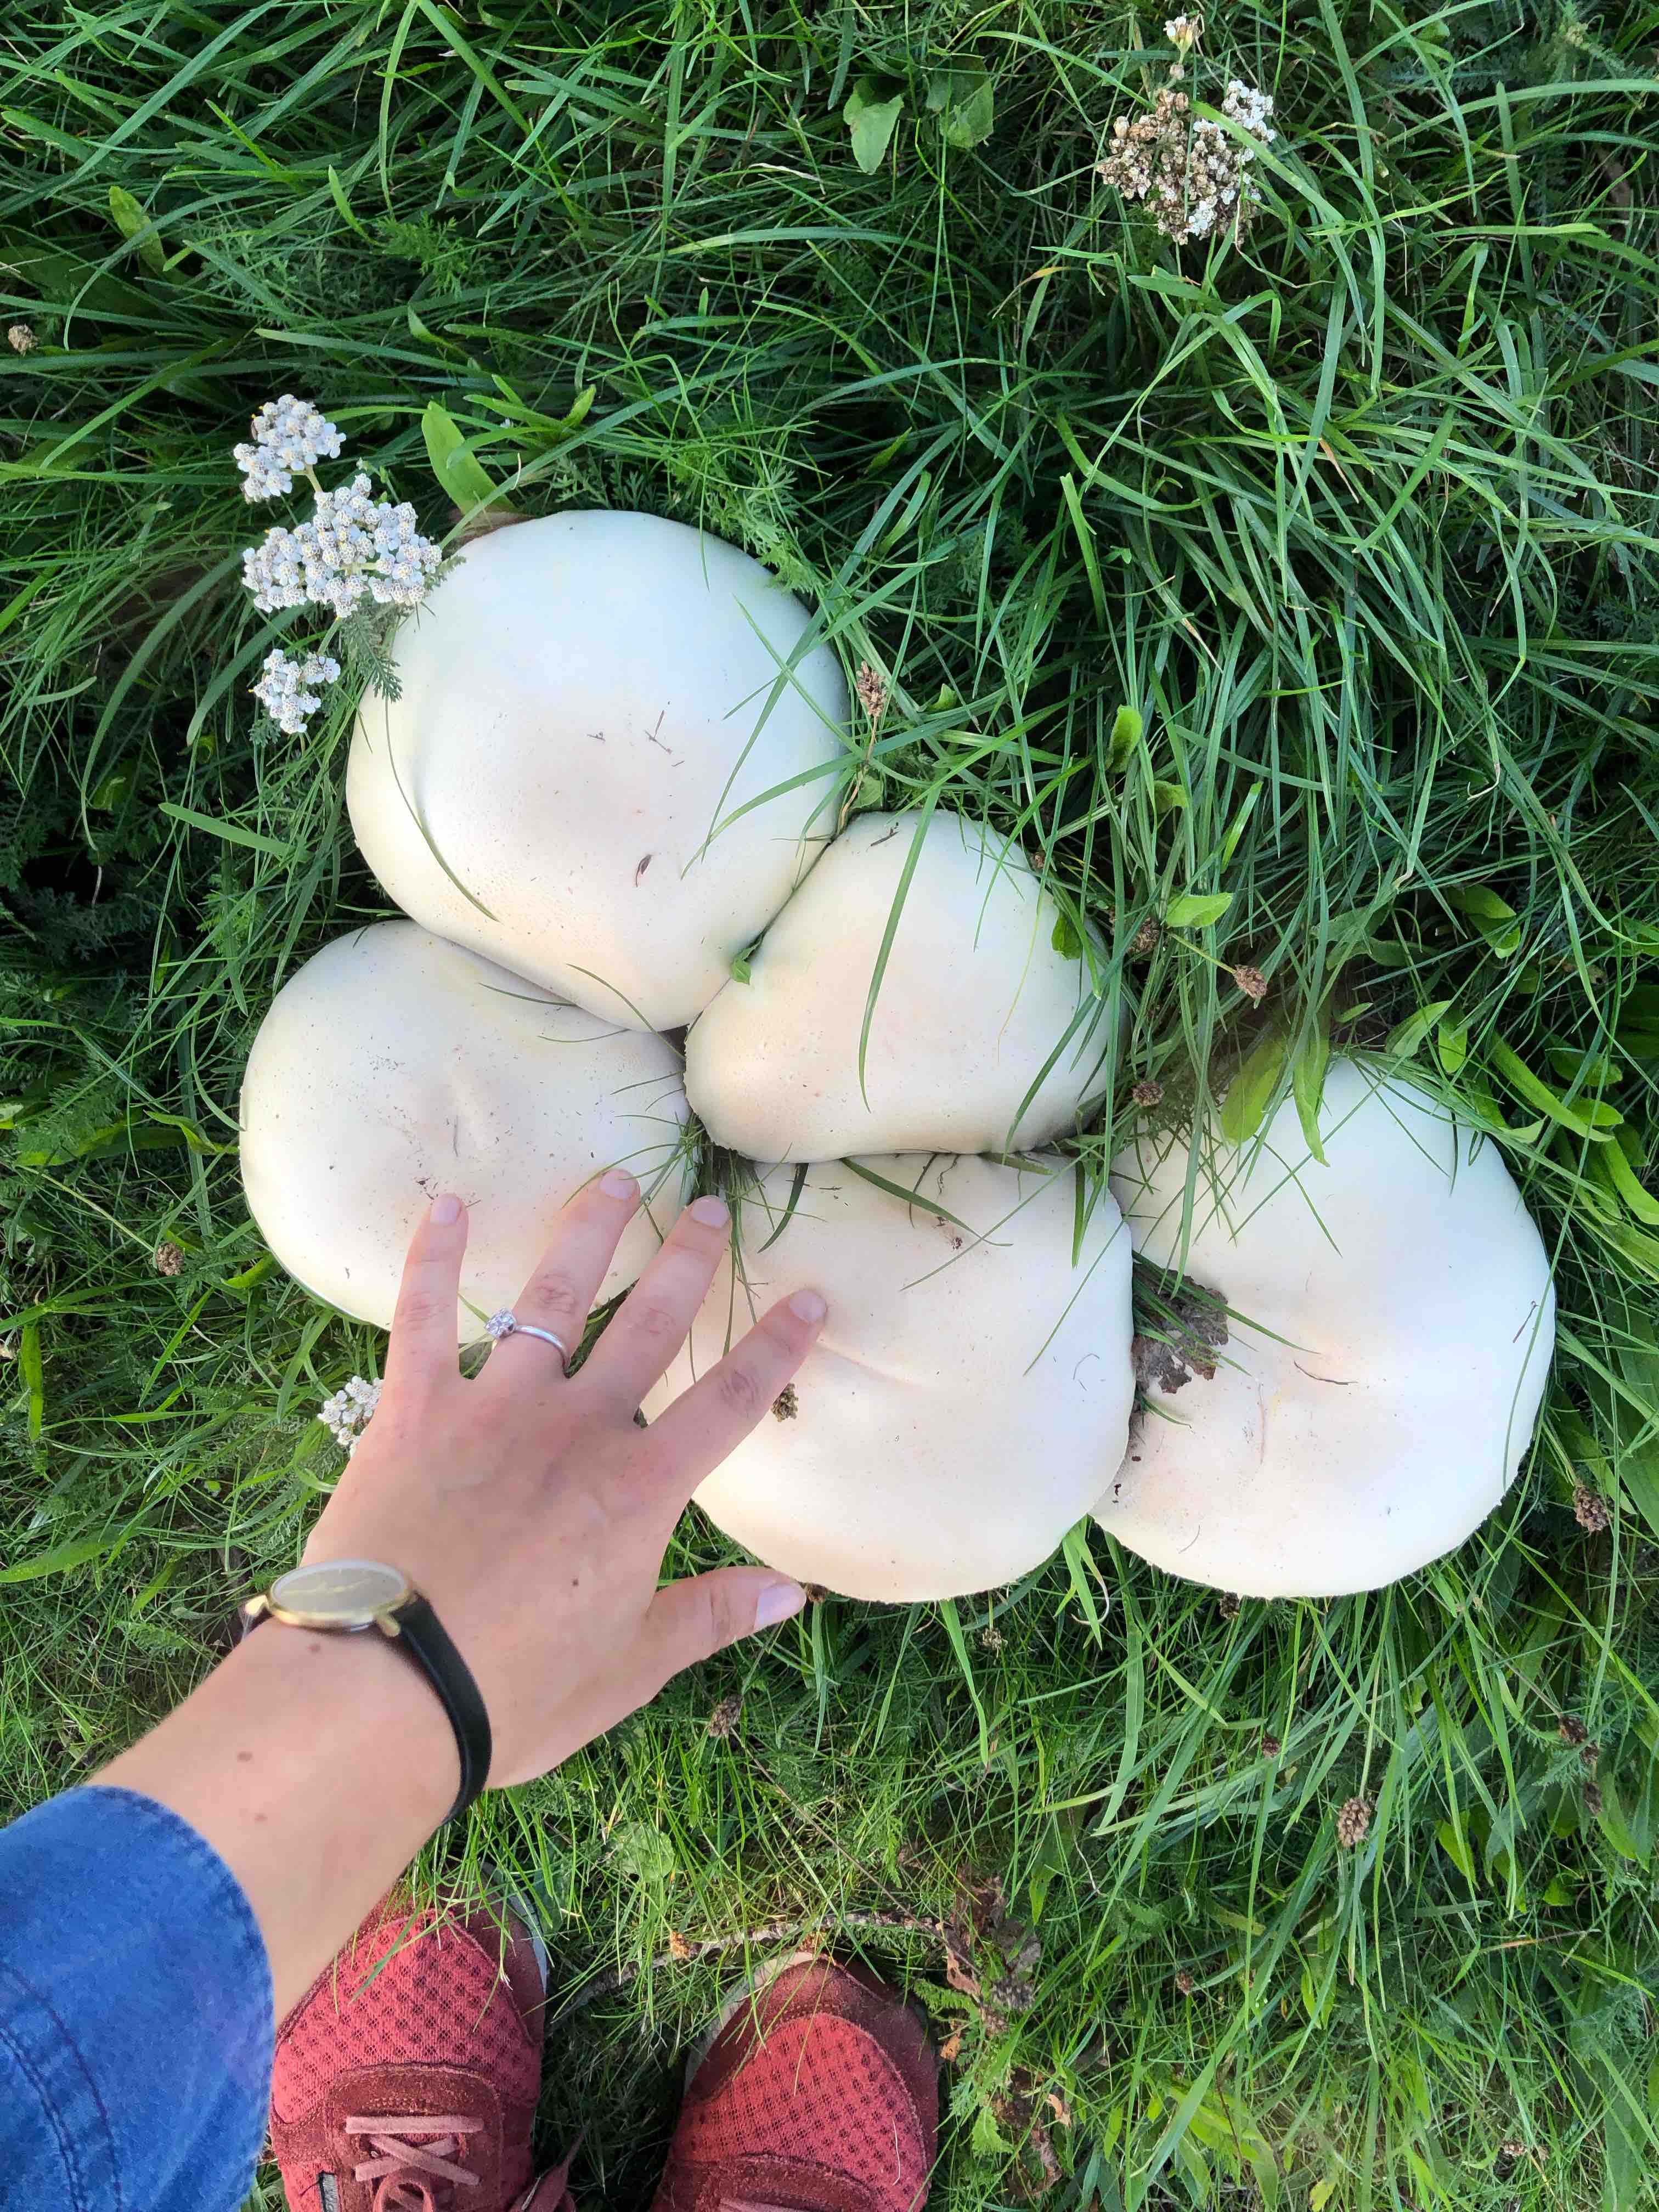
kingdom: Fungi
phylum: Basidiomycota
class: Agaricomycetes
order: Agaricales
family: Agaricaceae
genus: Agaricus
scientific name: Agaricus
